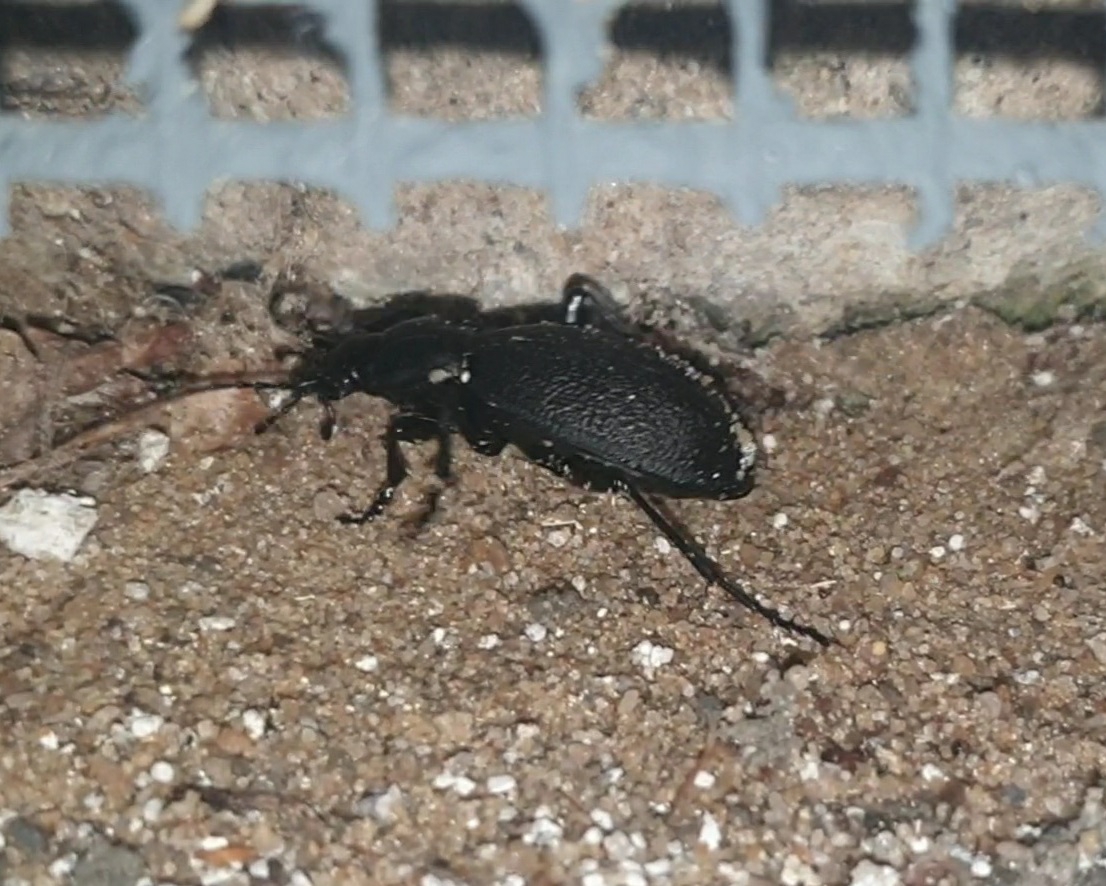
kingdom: Animalia
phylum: Arthropoda
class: Insecta
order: Coleoptera
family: Carabidae
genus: Carabus
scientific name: Carabus coriaceus
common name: Læderløber
